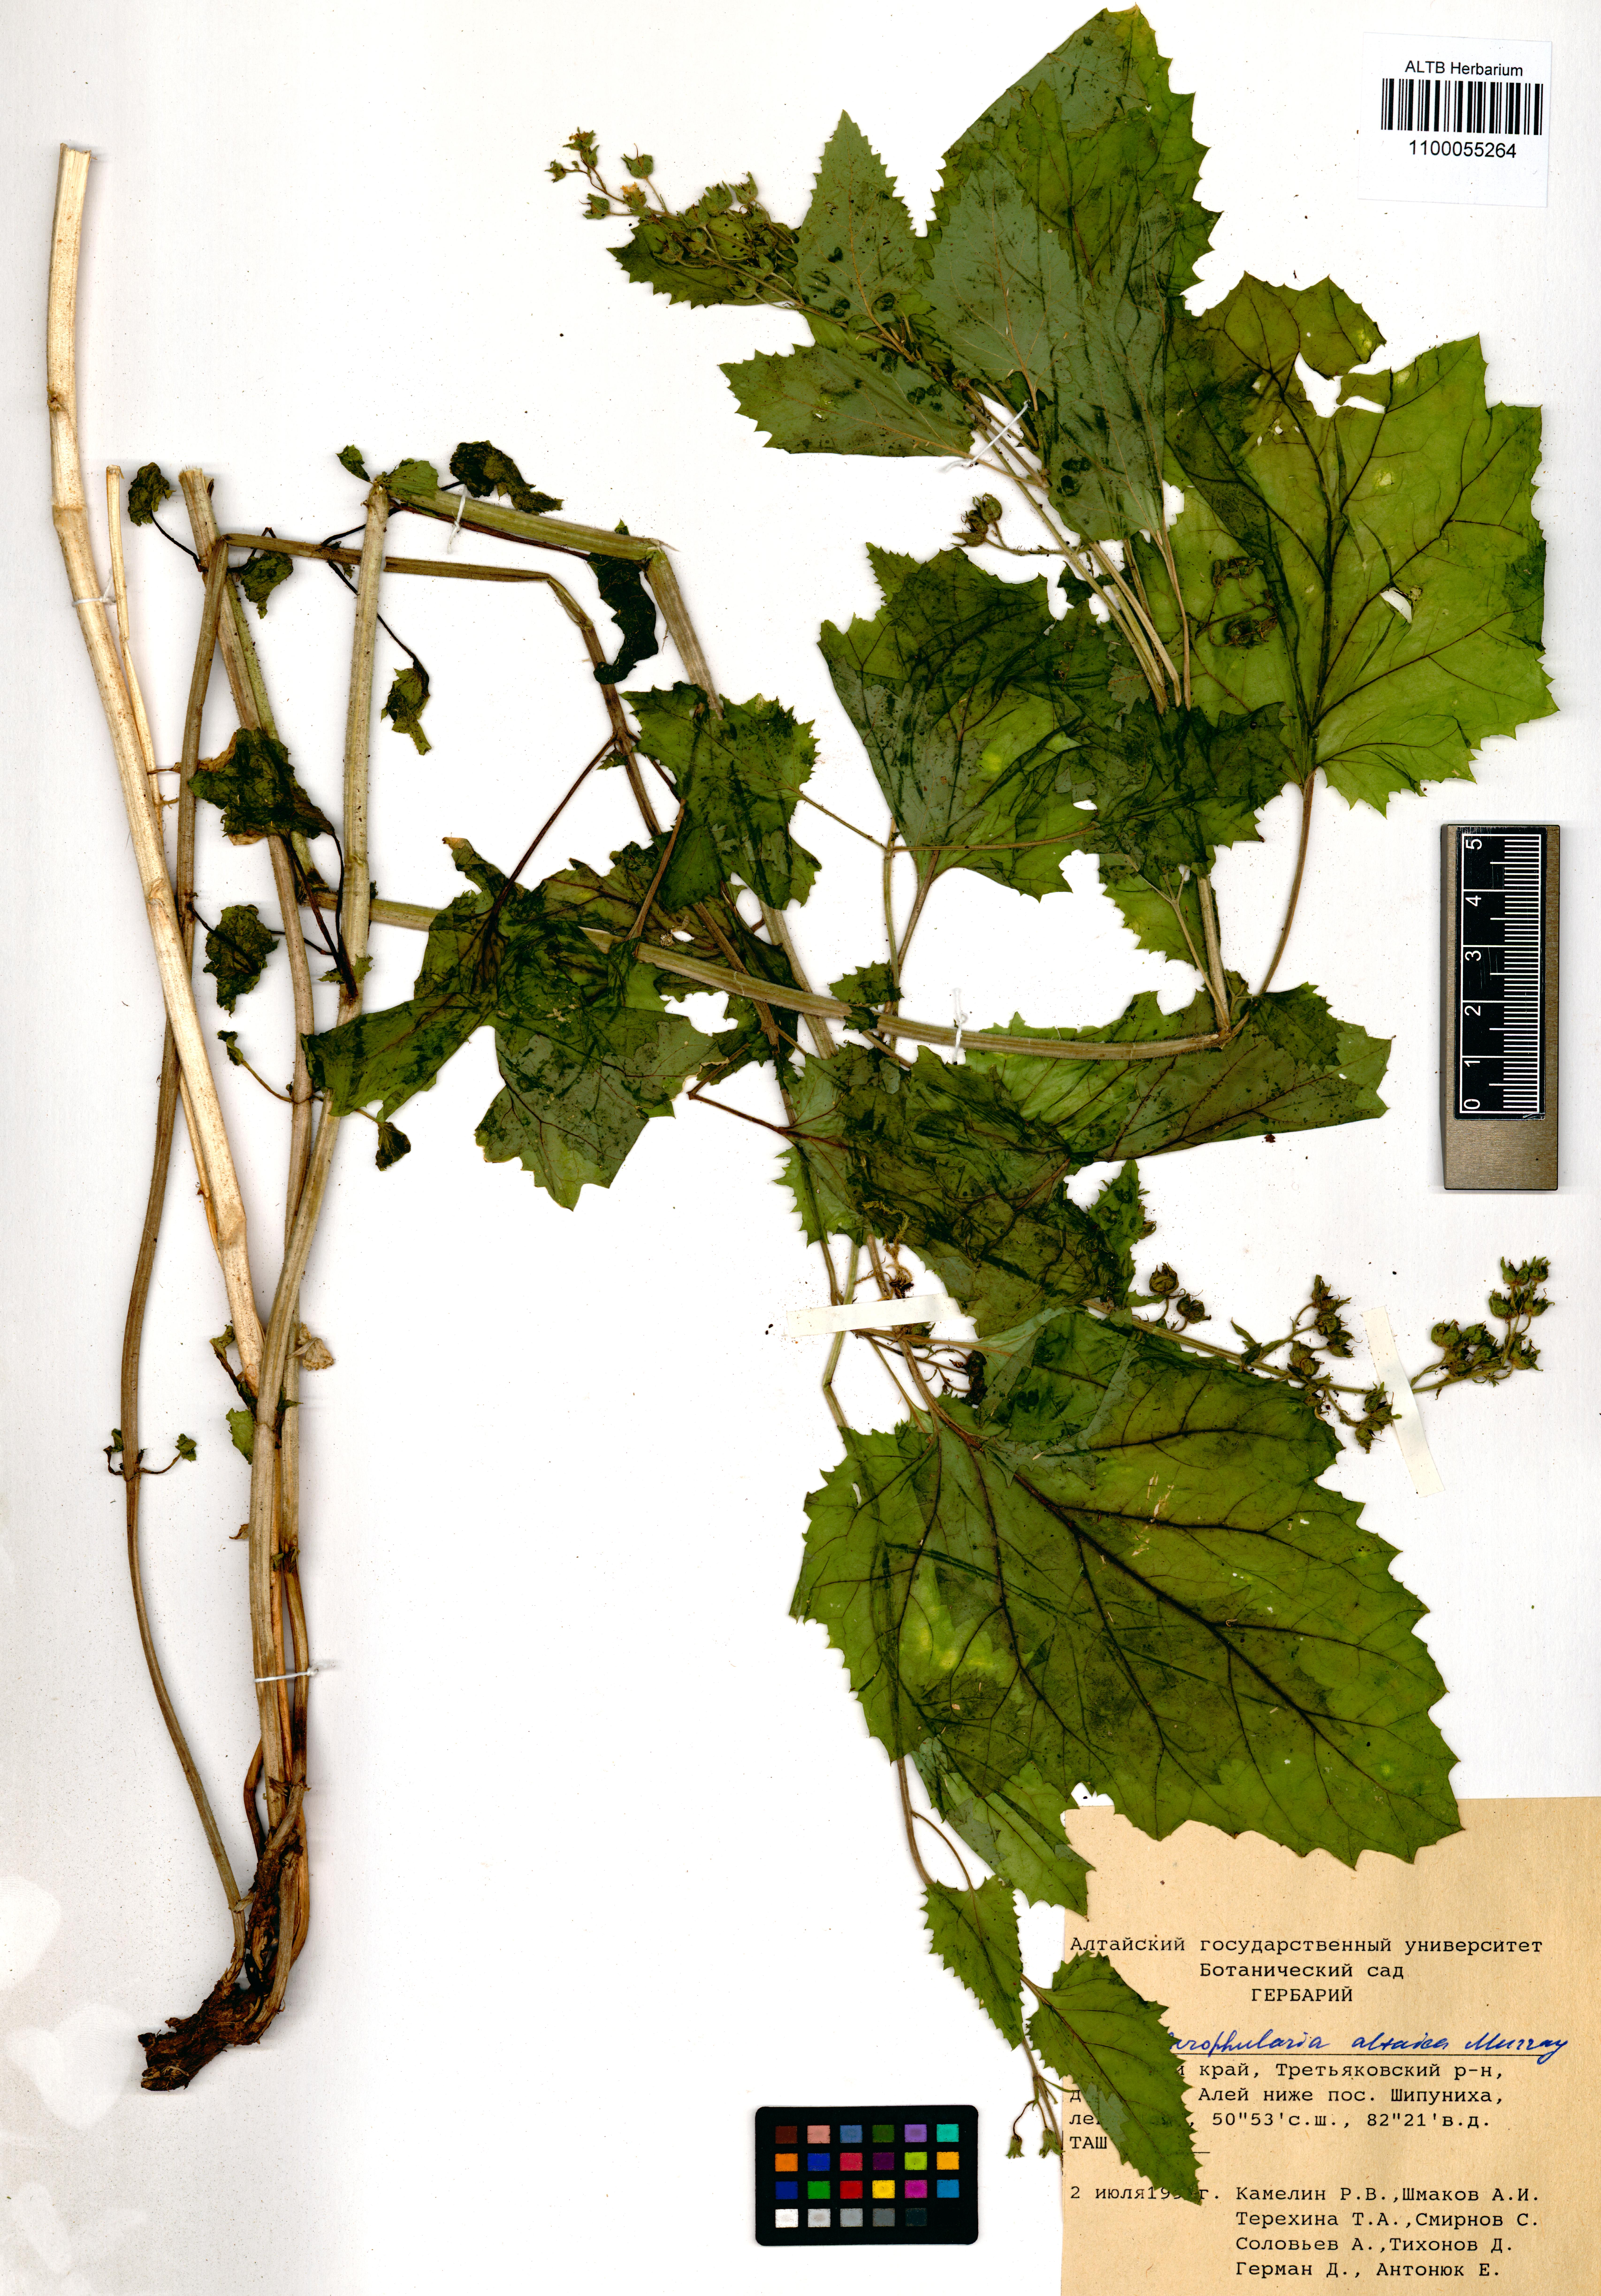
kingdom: Plantae
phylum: Tracheophyta
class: Magnoliopsida
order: Lamiales
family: Scrophulariaceae
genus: Scrophularia
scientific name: Scrophularia altaica
